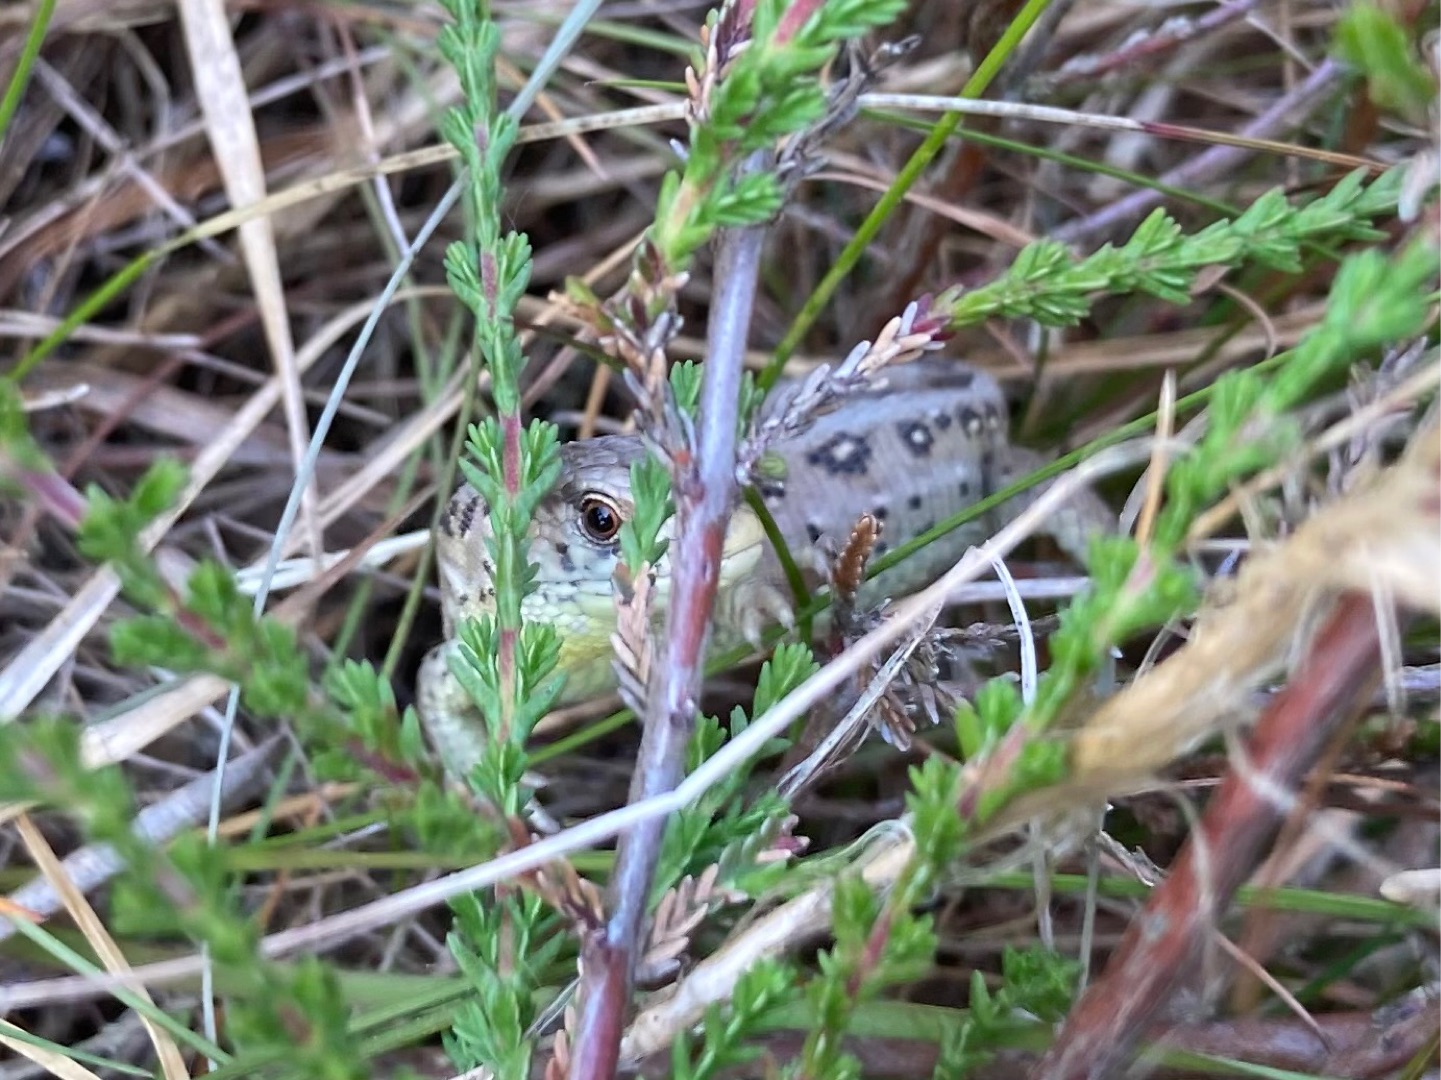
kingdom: Animalia
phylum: Chordata
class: Squamata
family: Lacertidae
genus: Lacerta
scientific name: Lacerta agilis
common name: Markfirben
